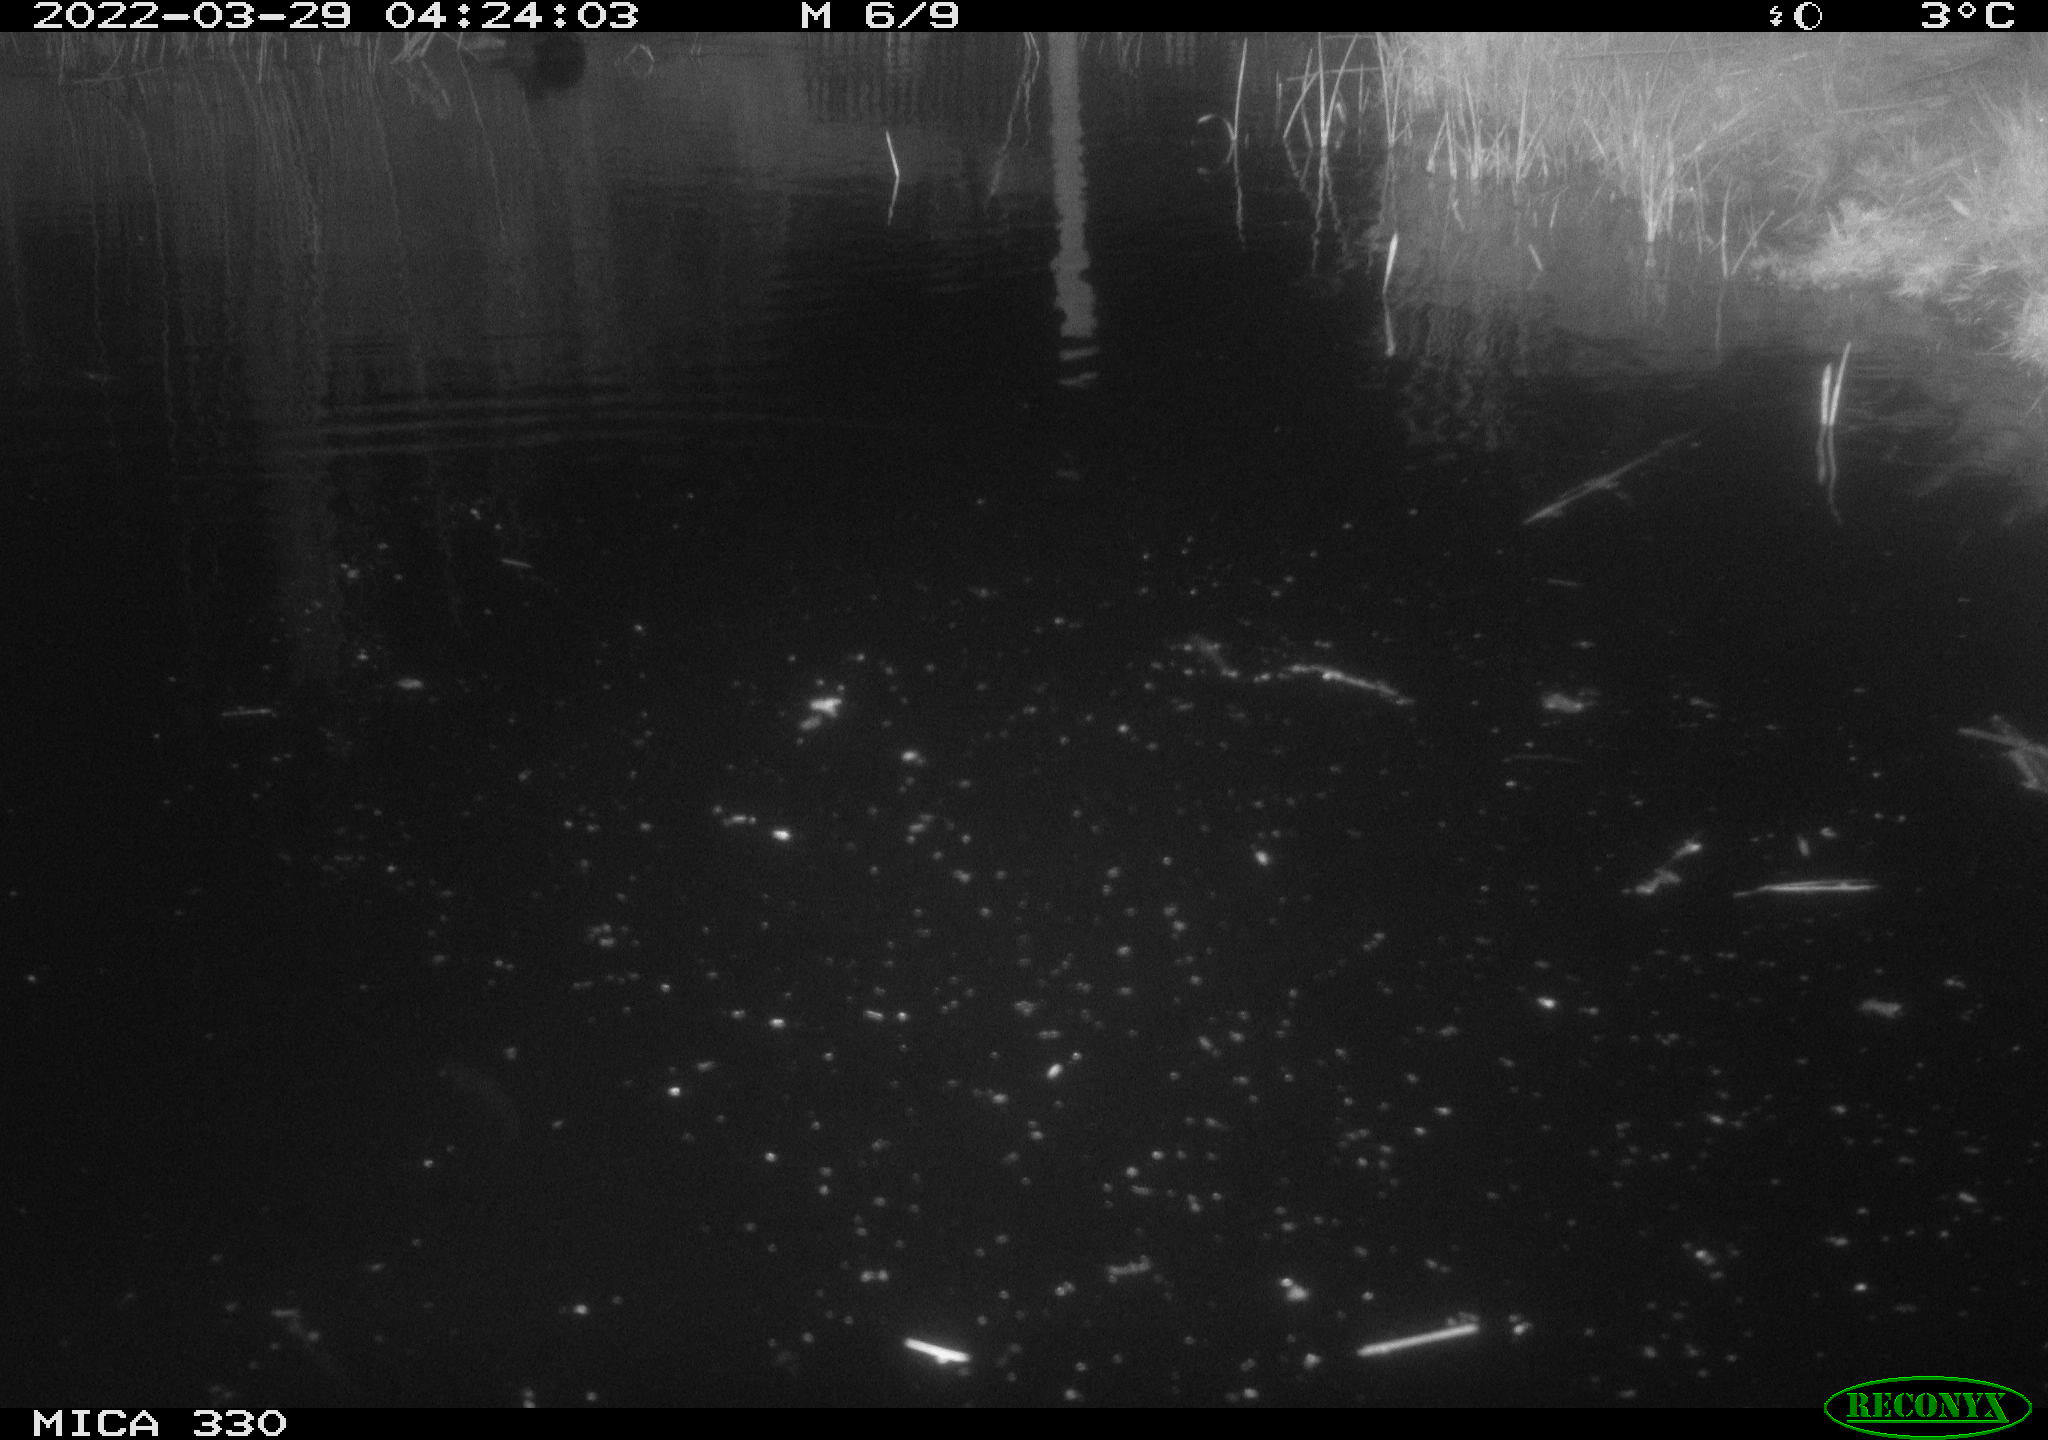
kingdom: Animalia
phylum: Chordata
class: Aves
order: Anseriformes
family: Anatidae
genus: Anas
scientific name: Anas platyrhynchos
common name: Mallard
